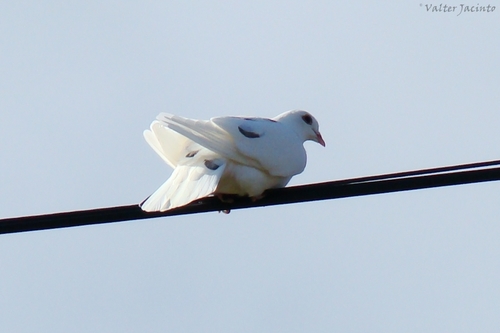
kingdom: Animalia
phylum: Chordata
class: Aves
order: Columbiformes
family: Columbidae
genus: Columba
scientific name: Columba livia
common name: Rock pigeon
